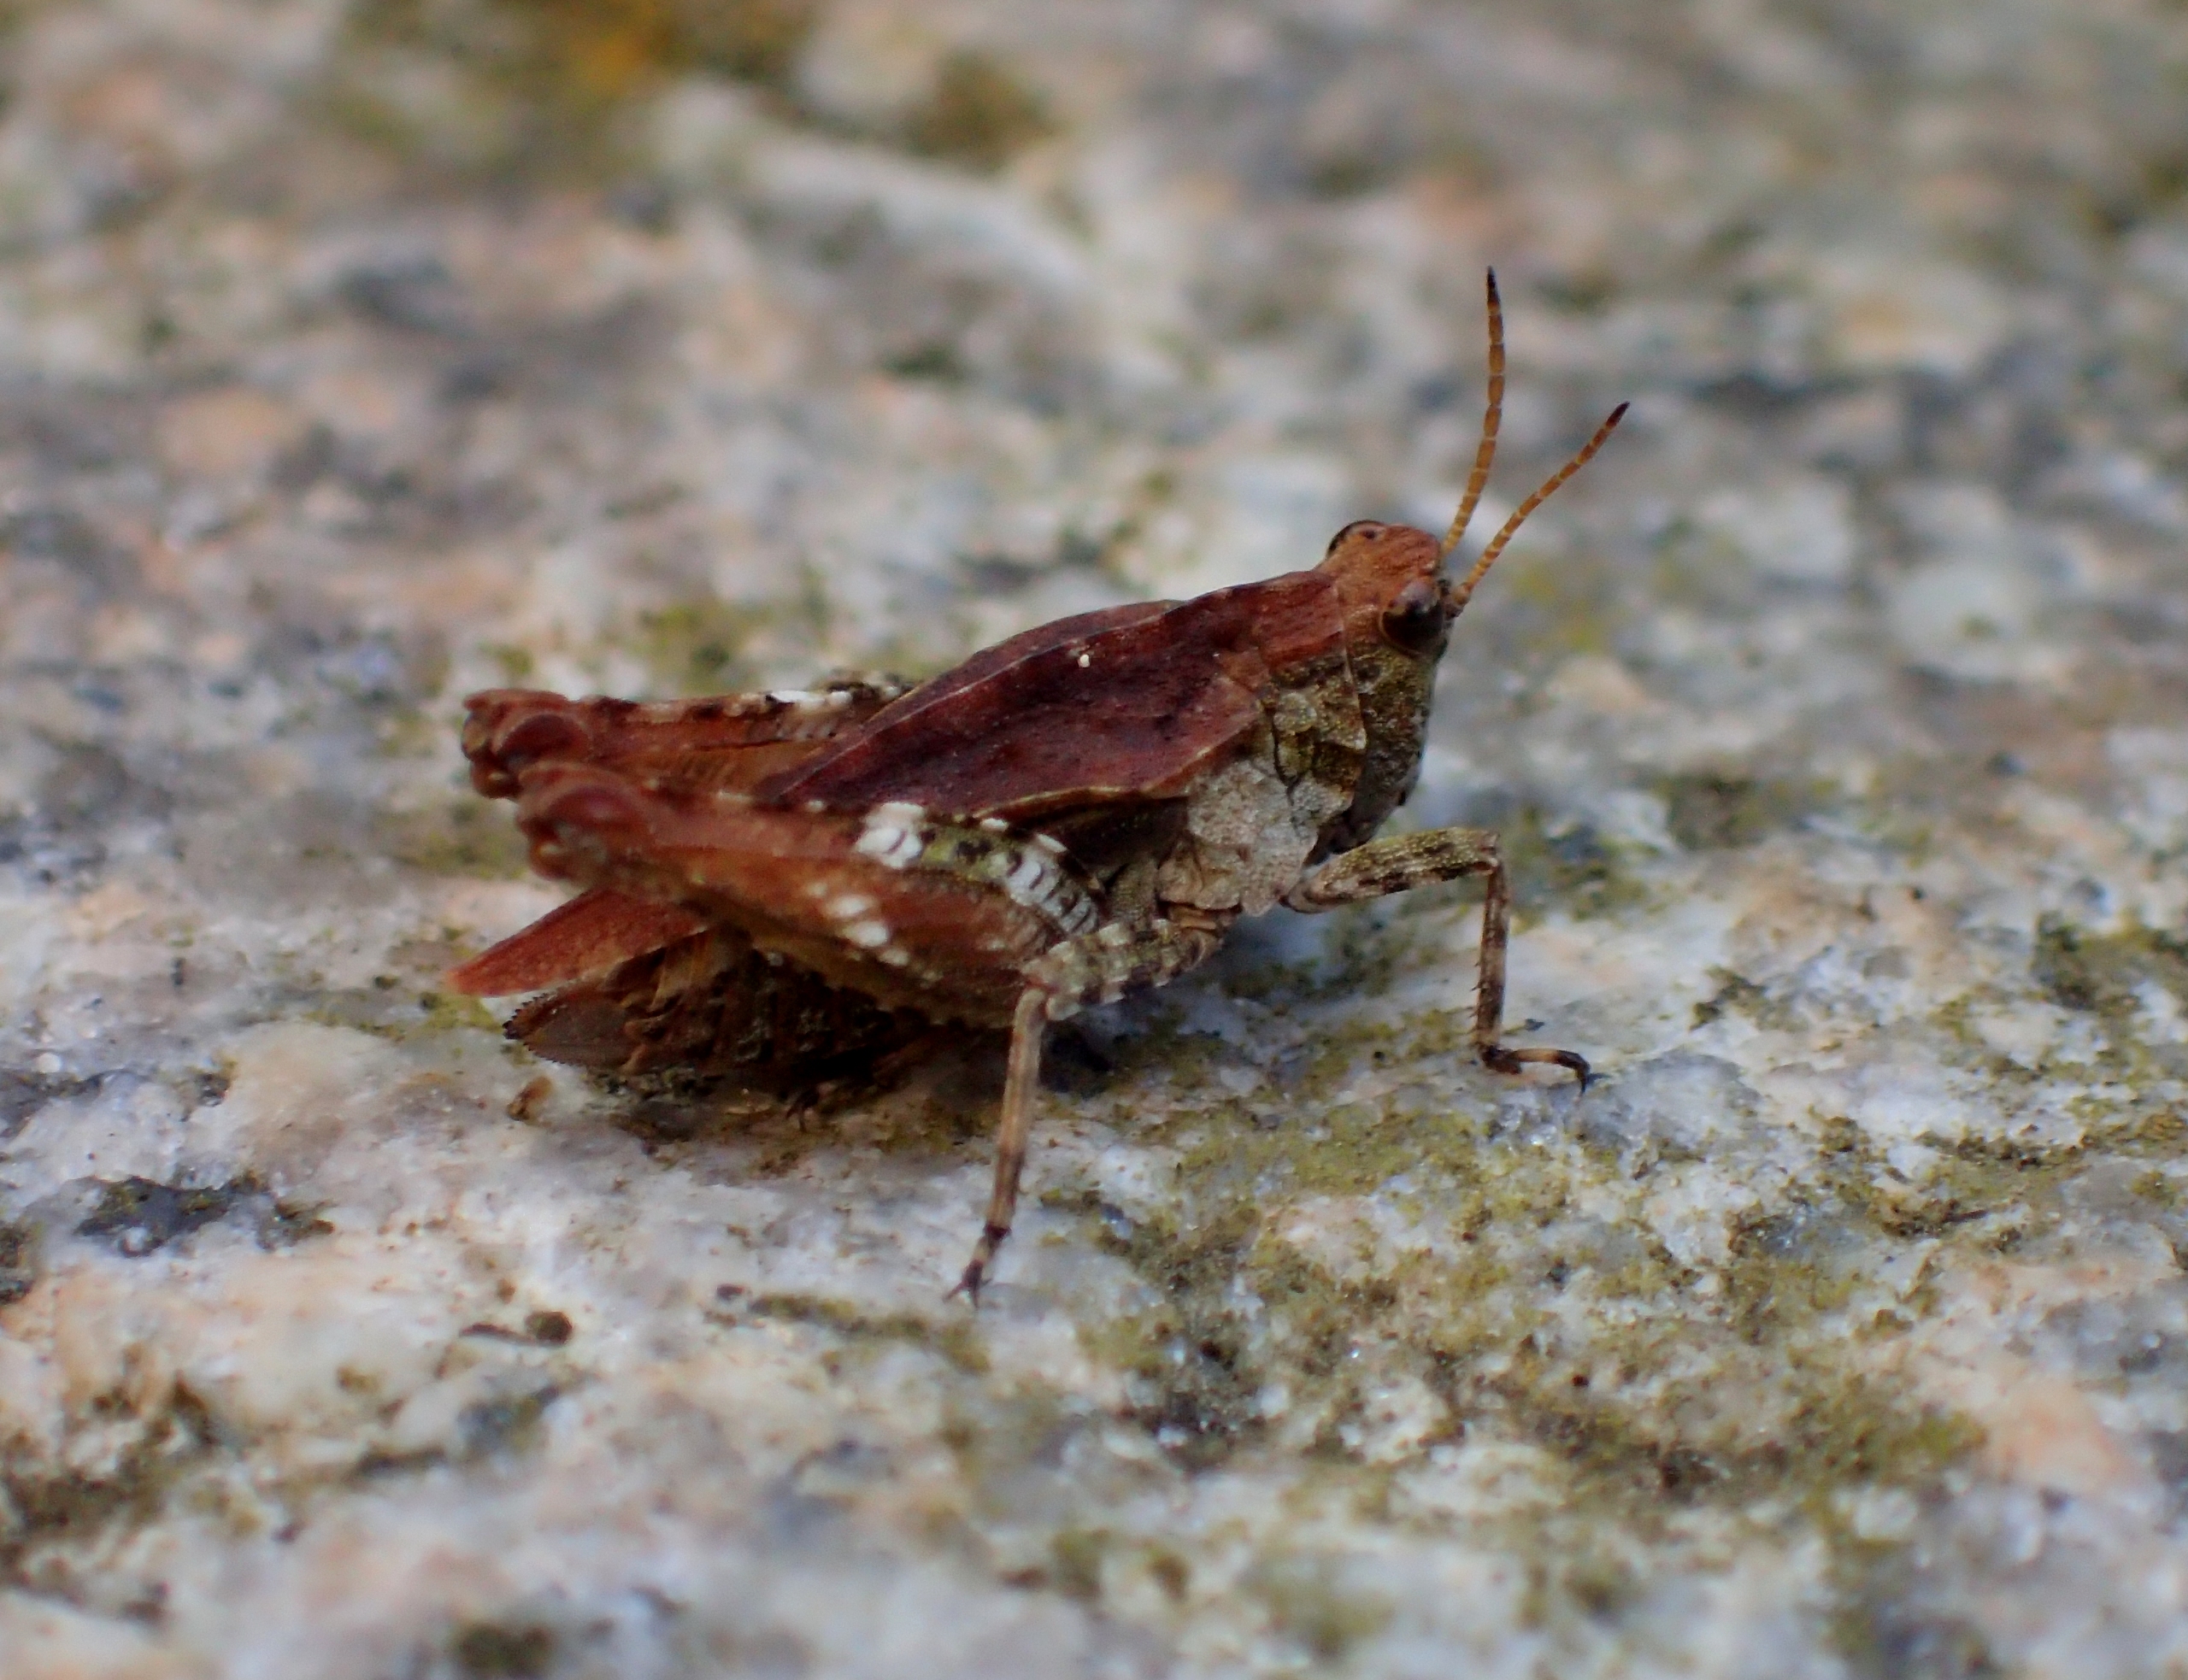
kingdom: Animalia
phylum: Arthropoda
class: Insecta
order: Orthoptera
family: Tetrigidae
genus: Tetrix
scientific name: Tetrix undulata
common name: Almindelig torngræshoppe
